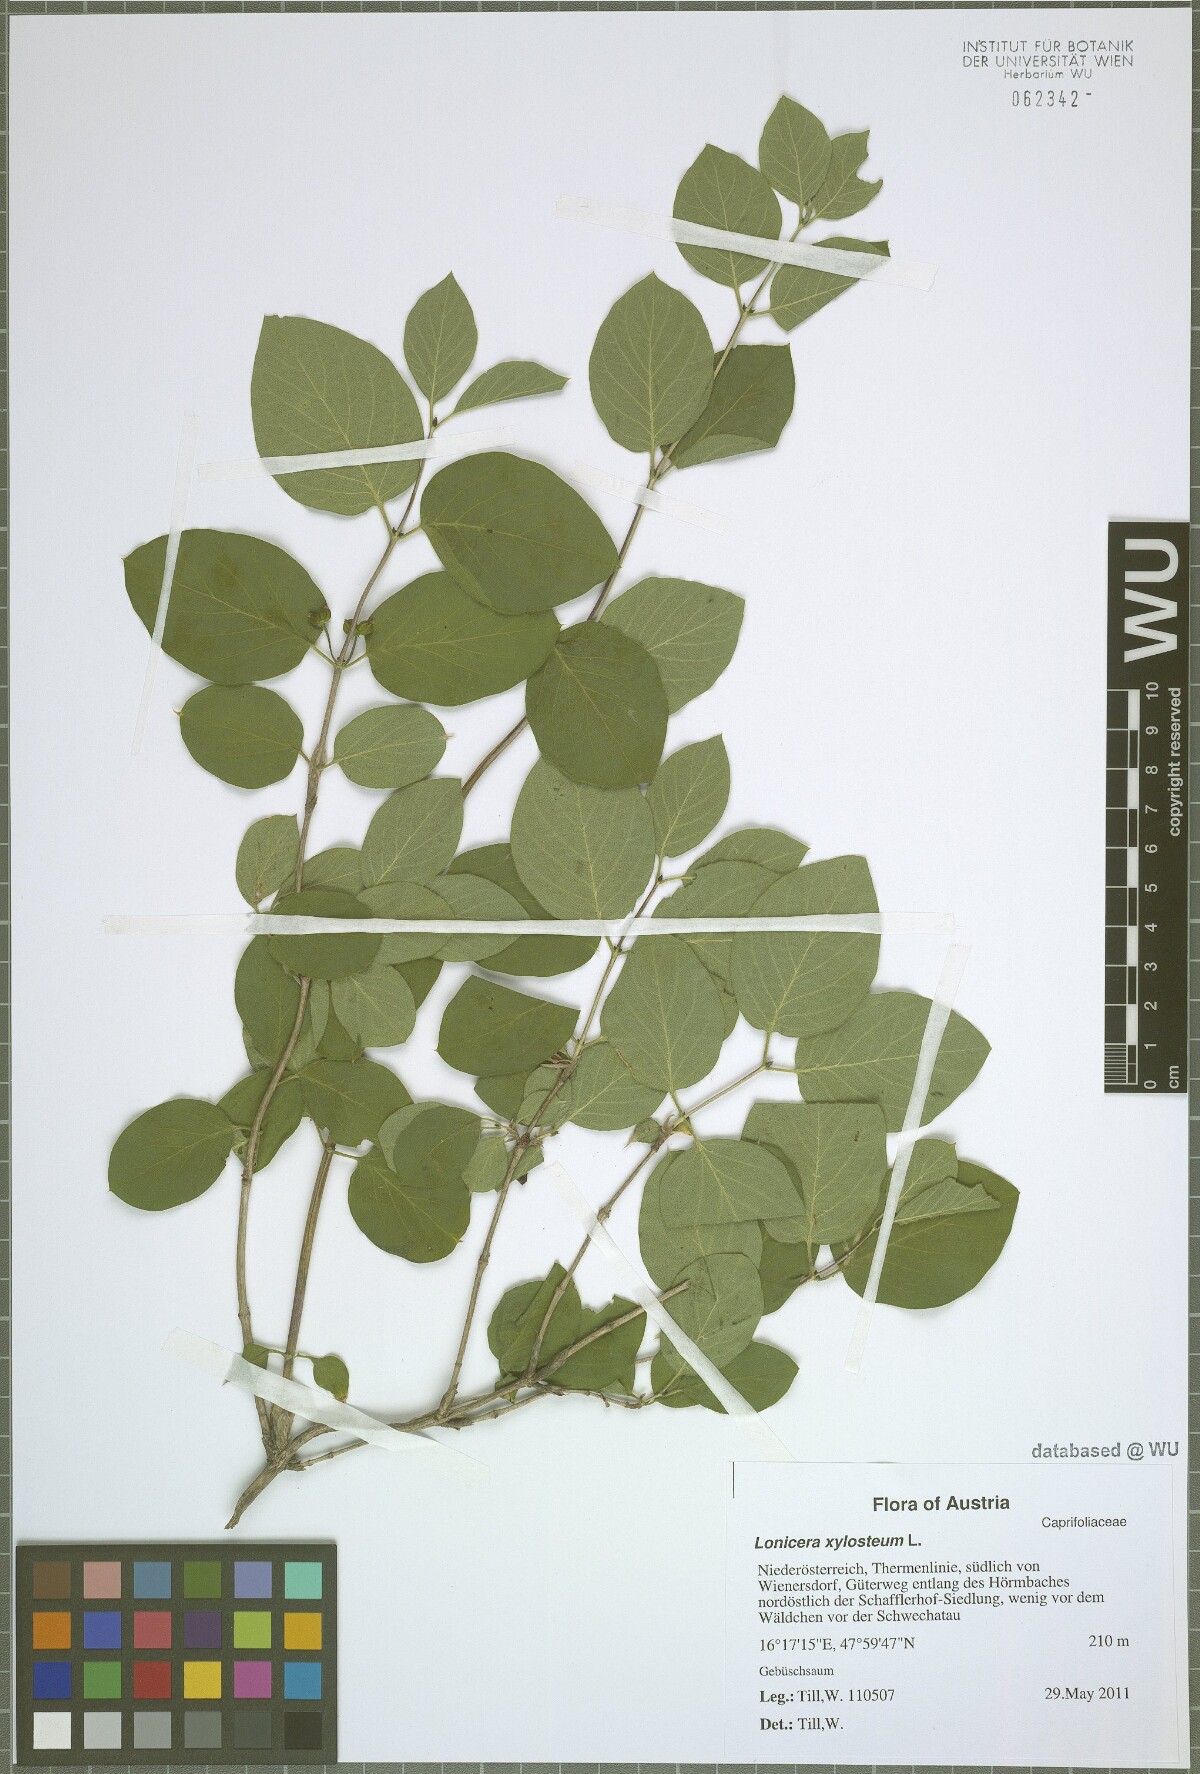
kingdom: Plantae
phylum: Tracheophyta
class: Magnoliopsida
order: Dipsacales
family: Caprifoliaceae
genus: Lonicera
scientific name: Lonicera xylosteum
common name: Fly honeysuckle
